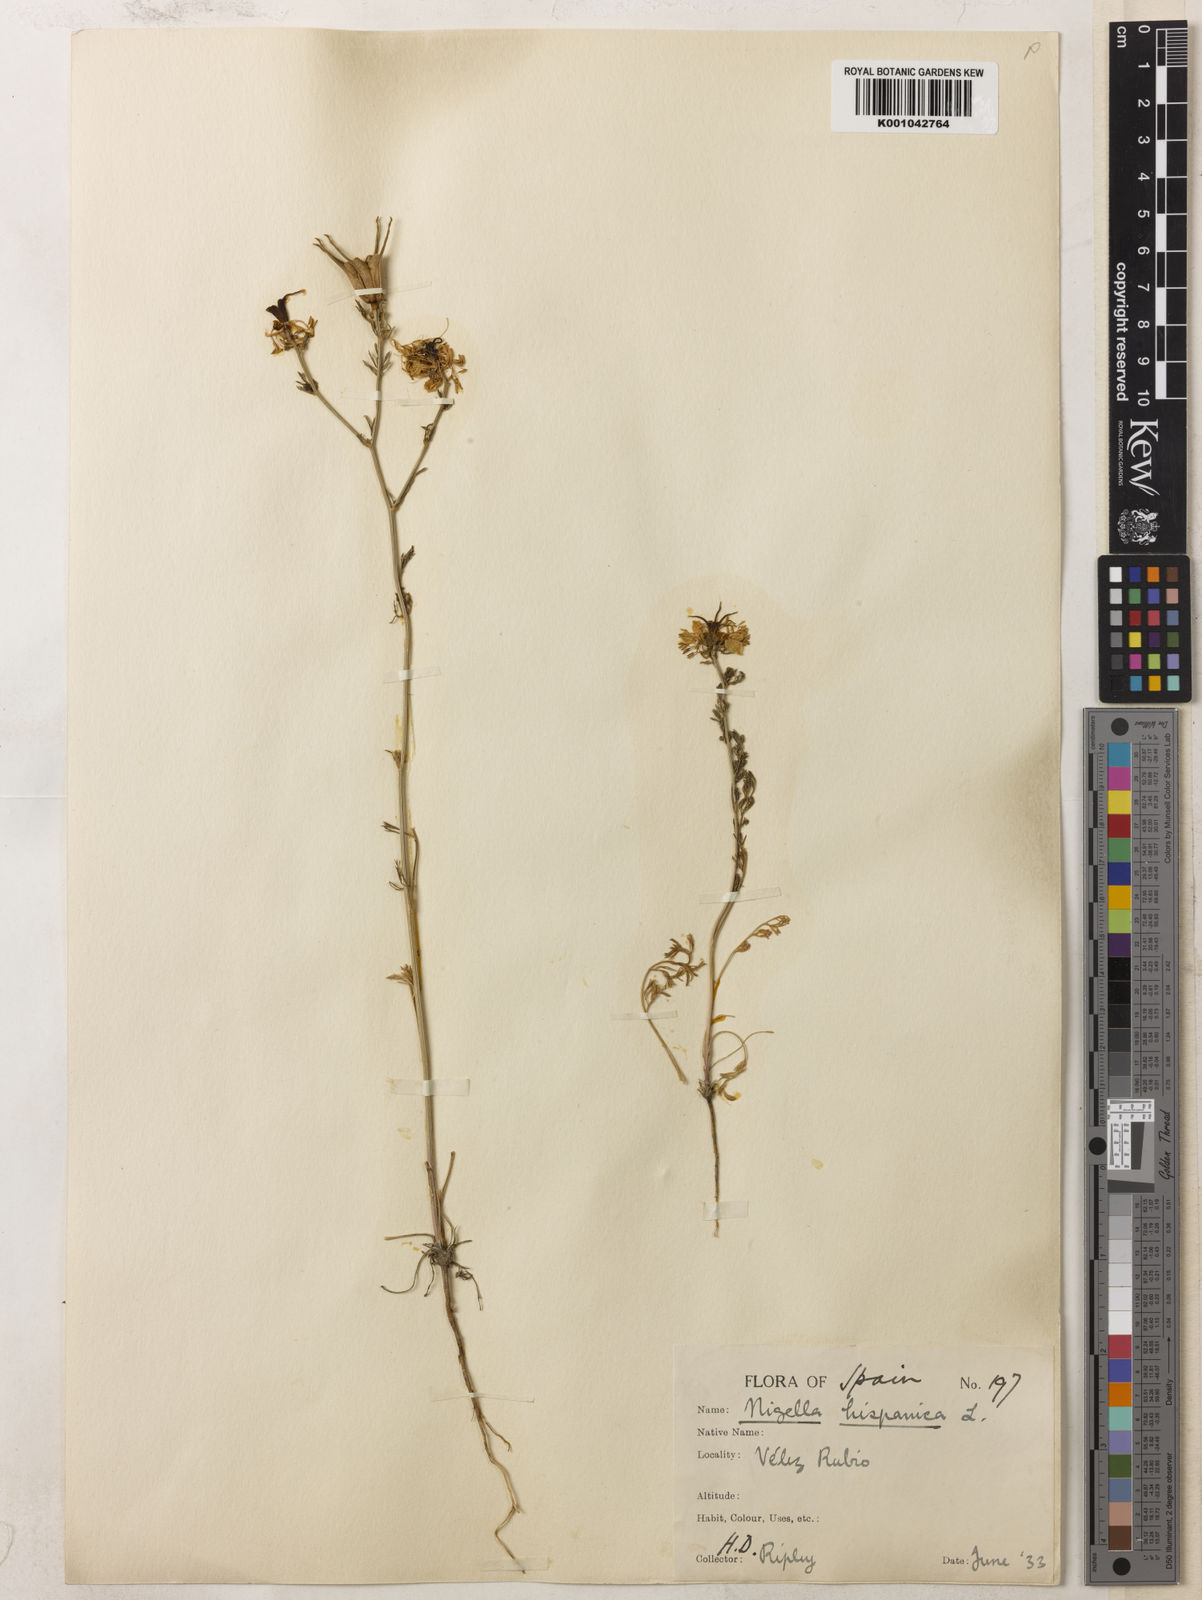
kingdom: Plantae
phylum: Tracheophyta
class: Magnoliopsida
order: Ranunculales
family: Ranunculaceae
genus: Nigella
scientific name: Nigella hispanica
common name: Fennel-flower
